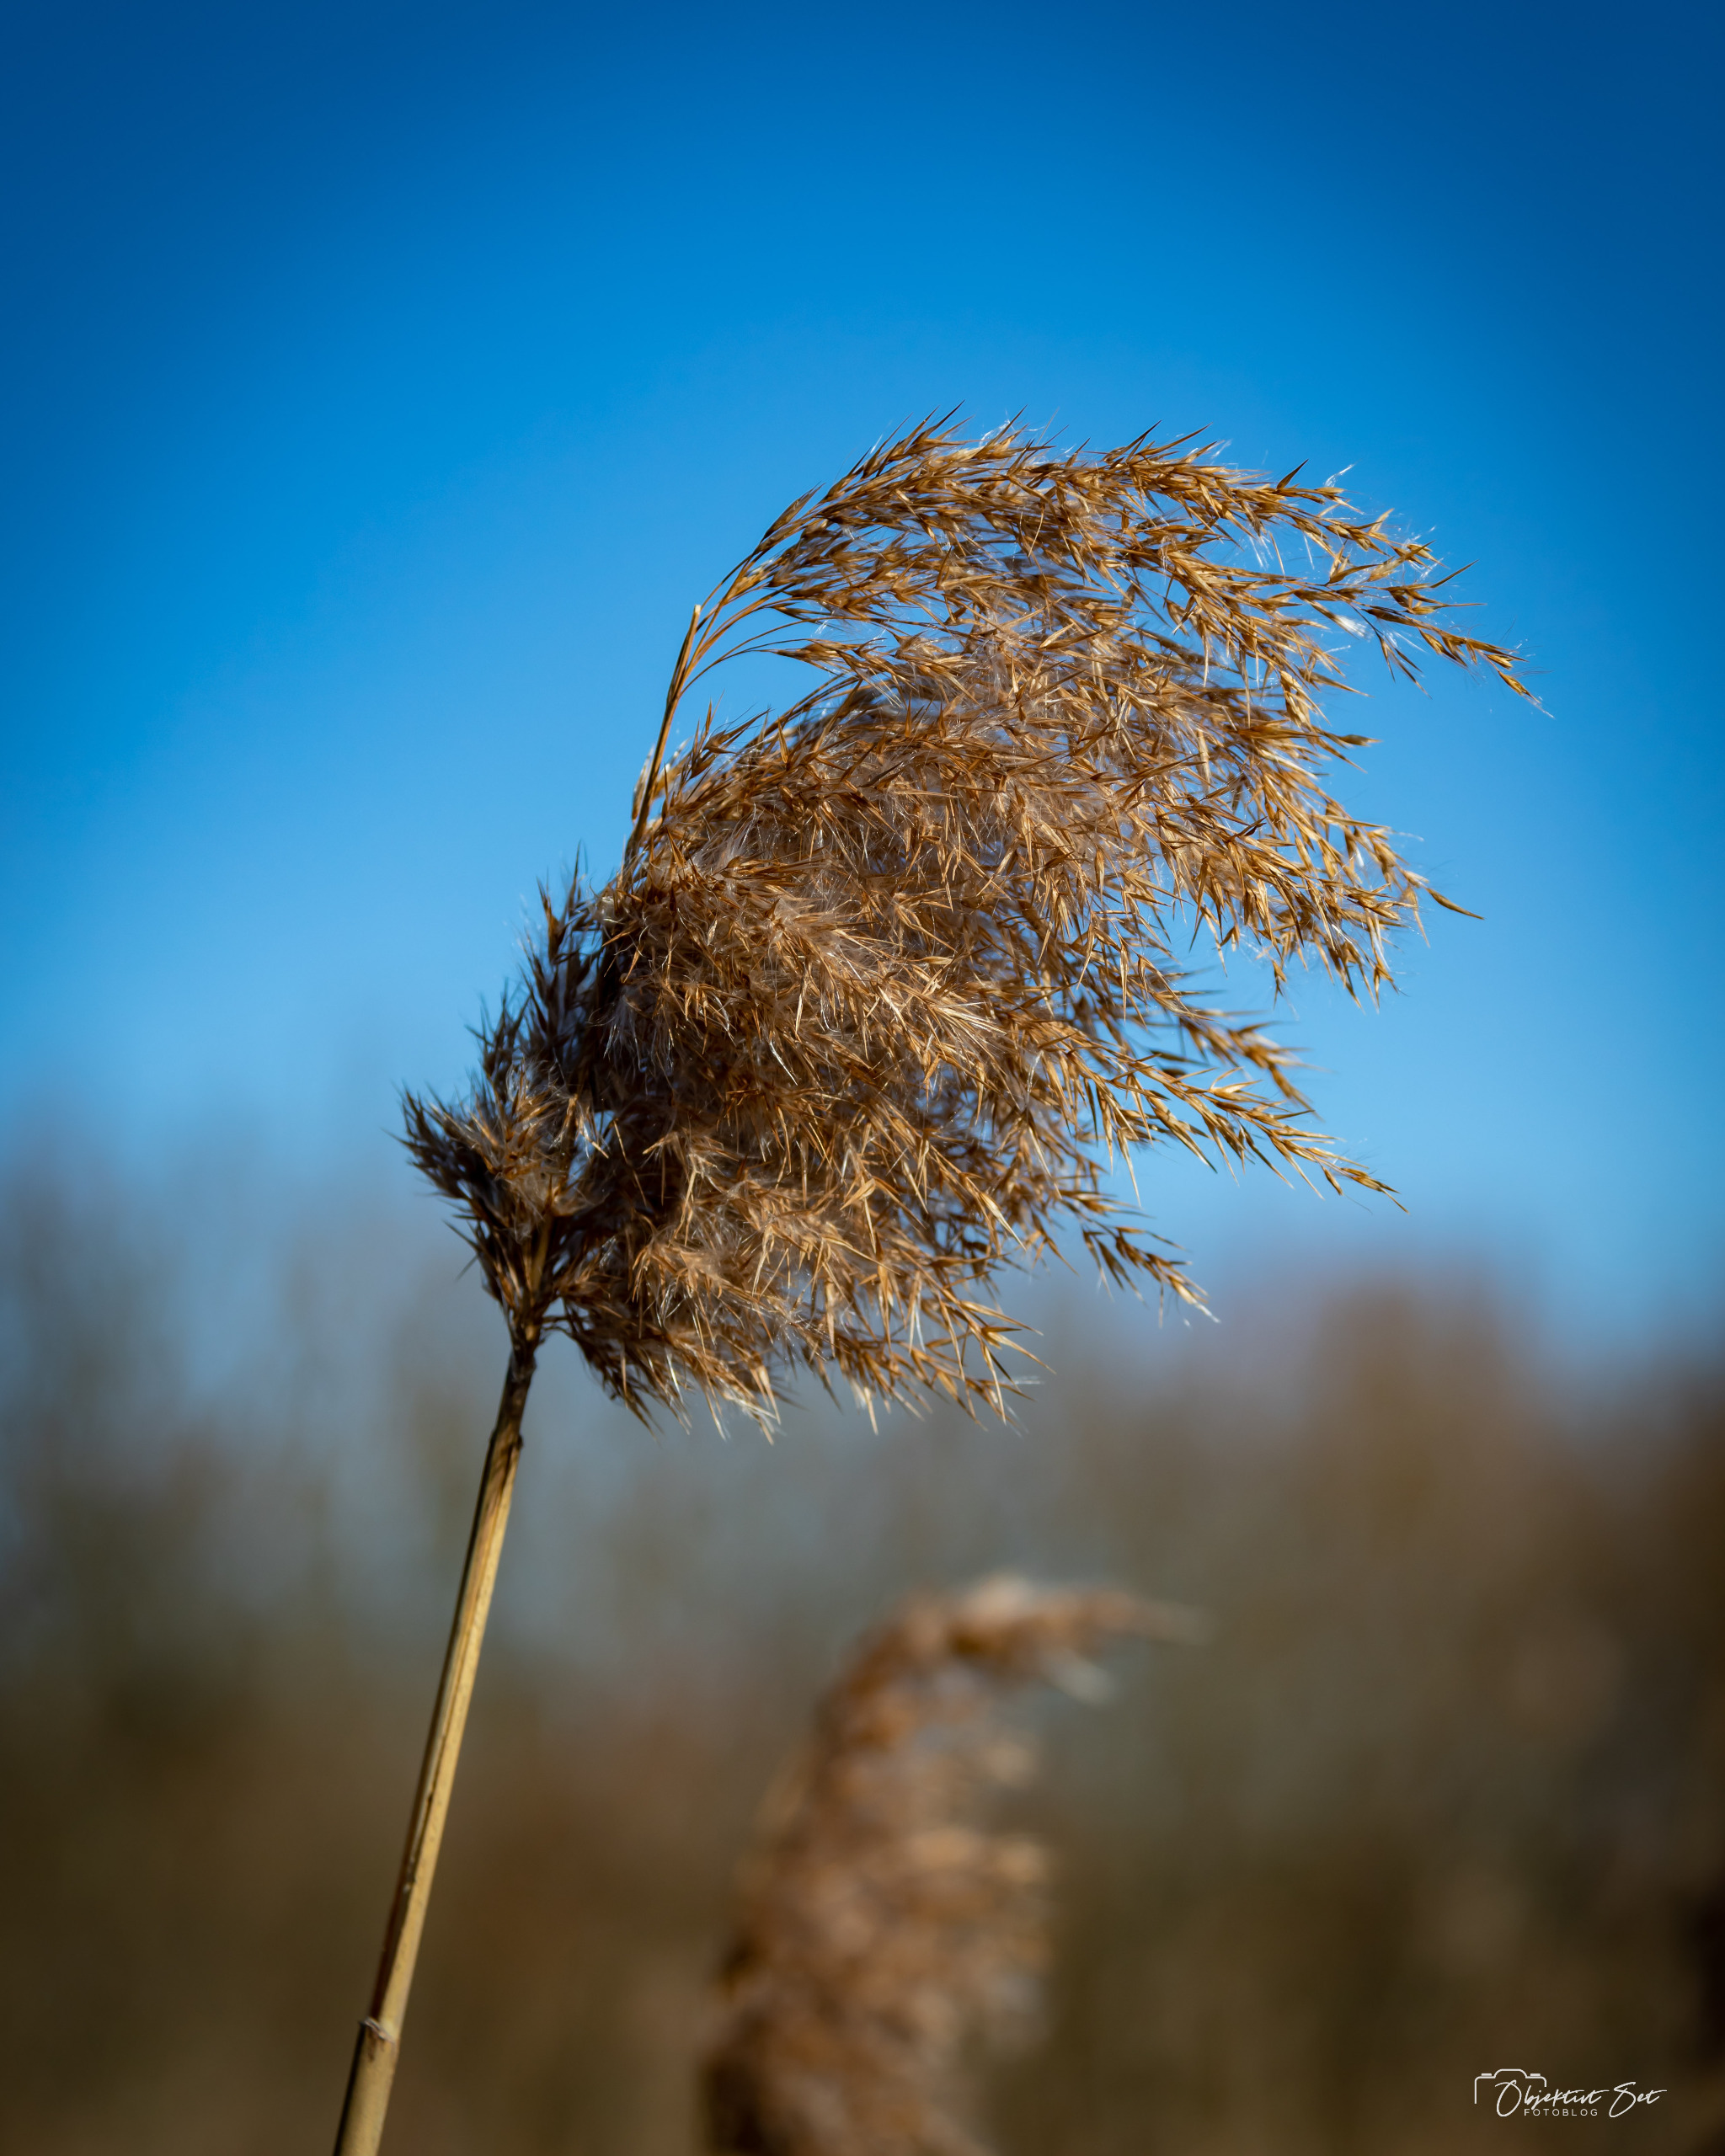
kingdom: Plantae
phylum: Tracheophyta
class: Liliopsida
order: Poales
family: Poaceae
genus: Phragmites
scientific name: Phragmites australis
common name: Tagrør
